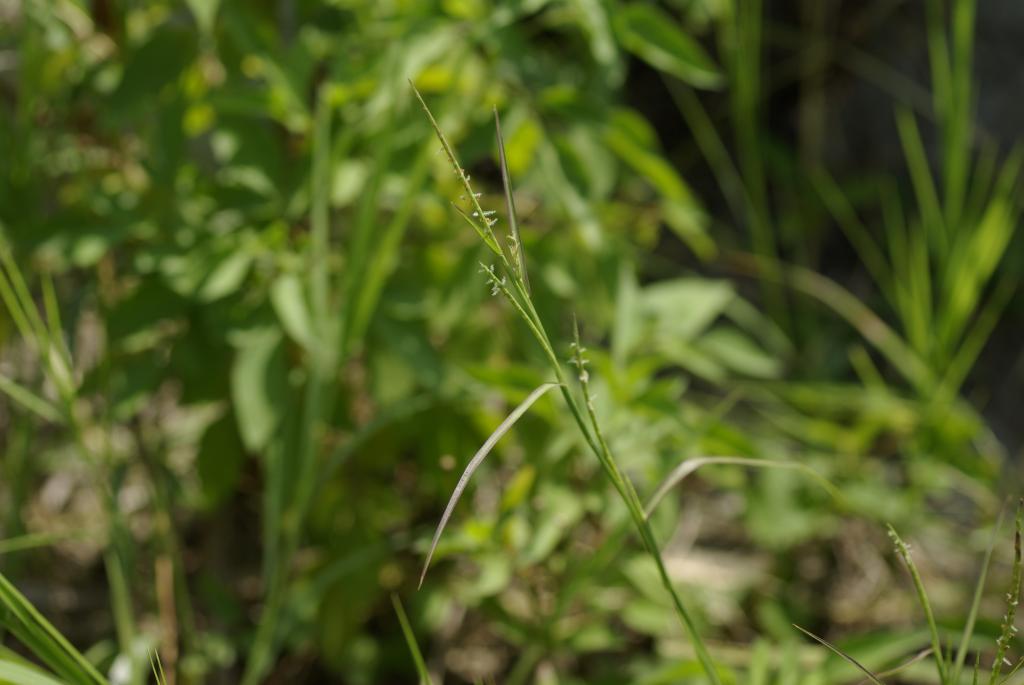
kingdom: Plantae
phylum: Tracheophyta
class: Liliopsida
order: Poales
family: Poaceae
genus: Hemarthria
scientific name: Hemarthria compressa
